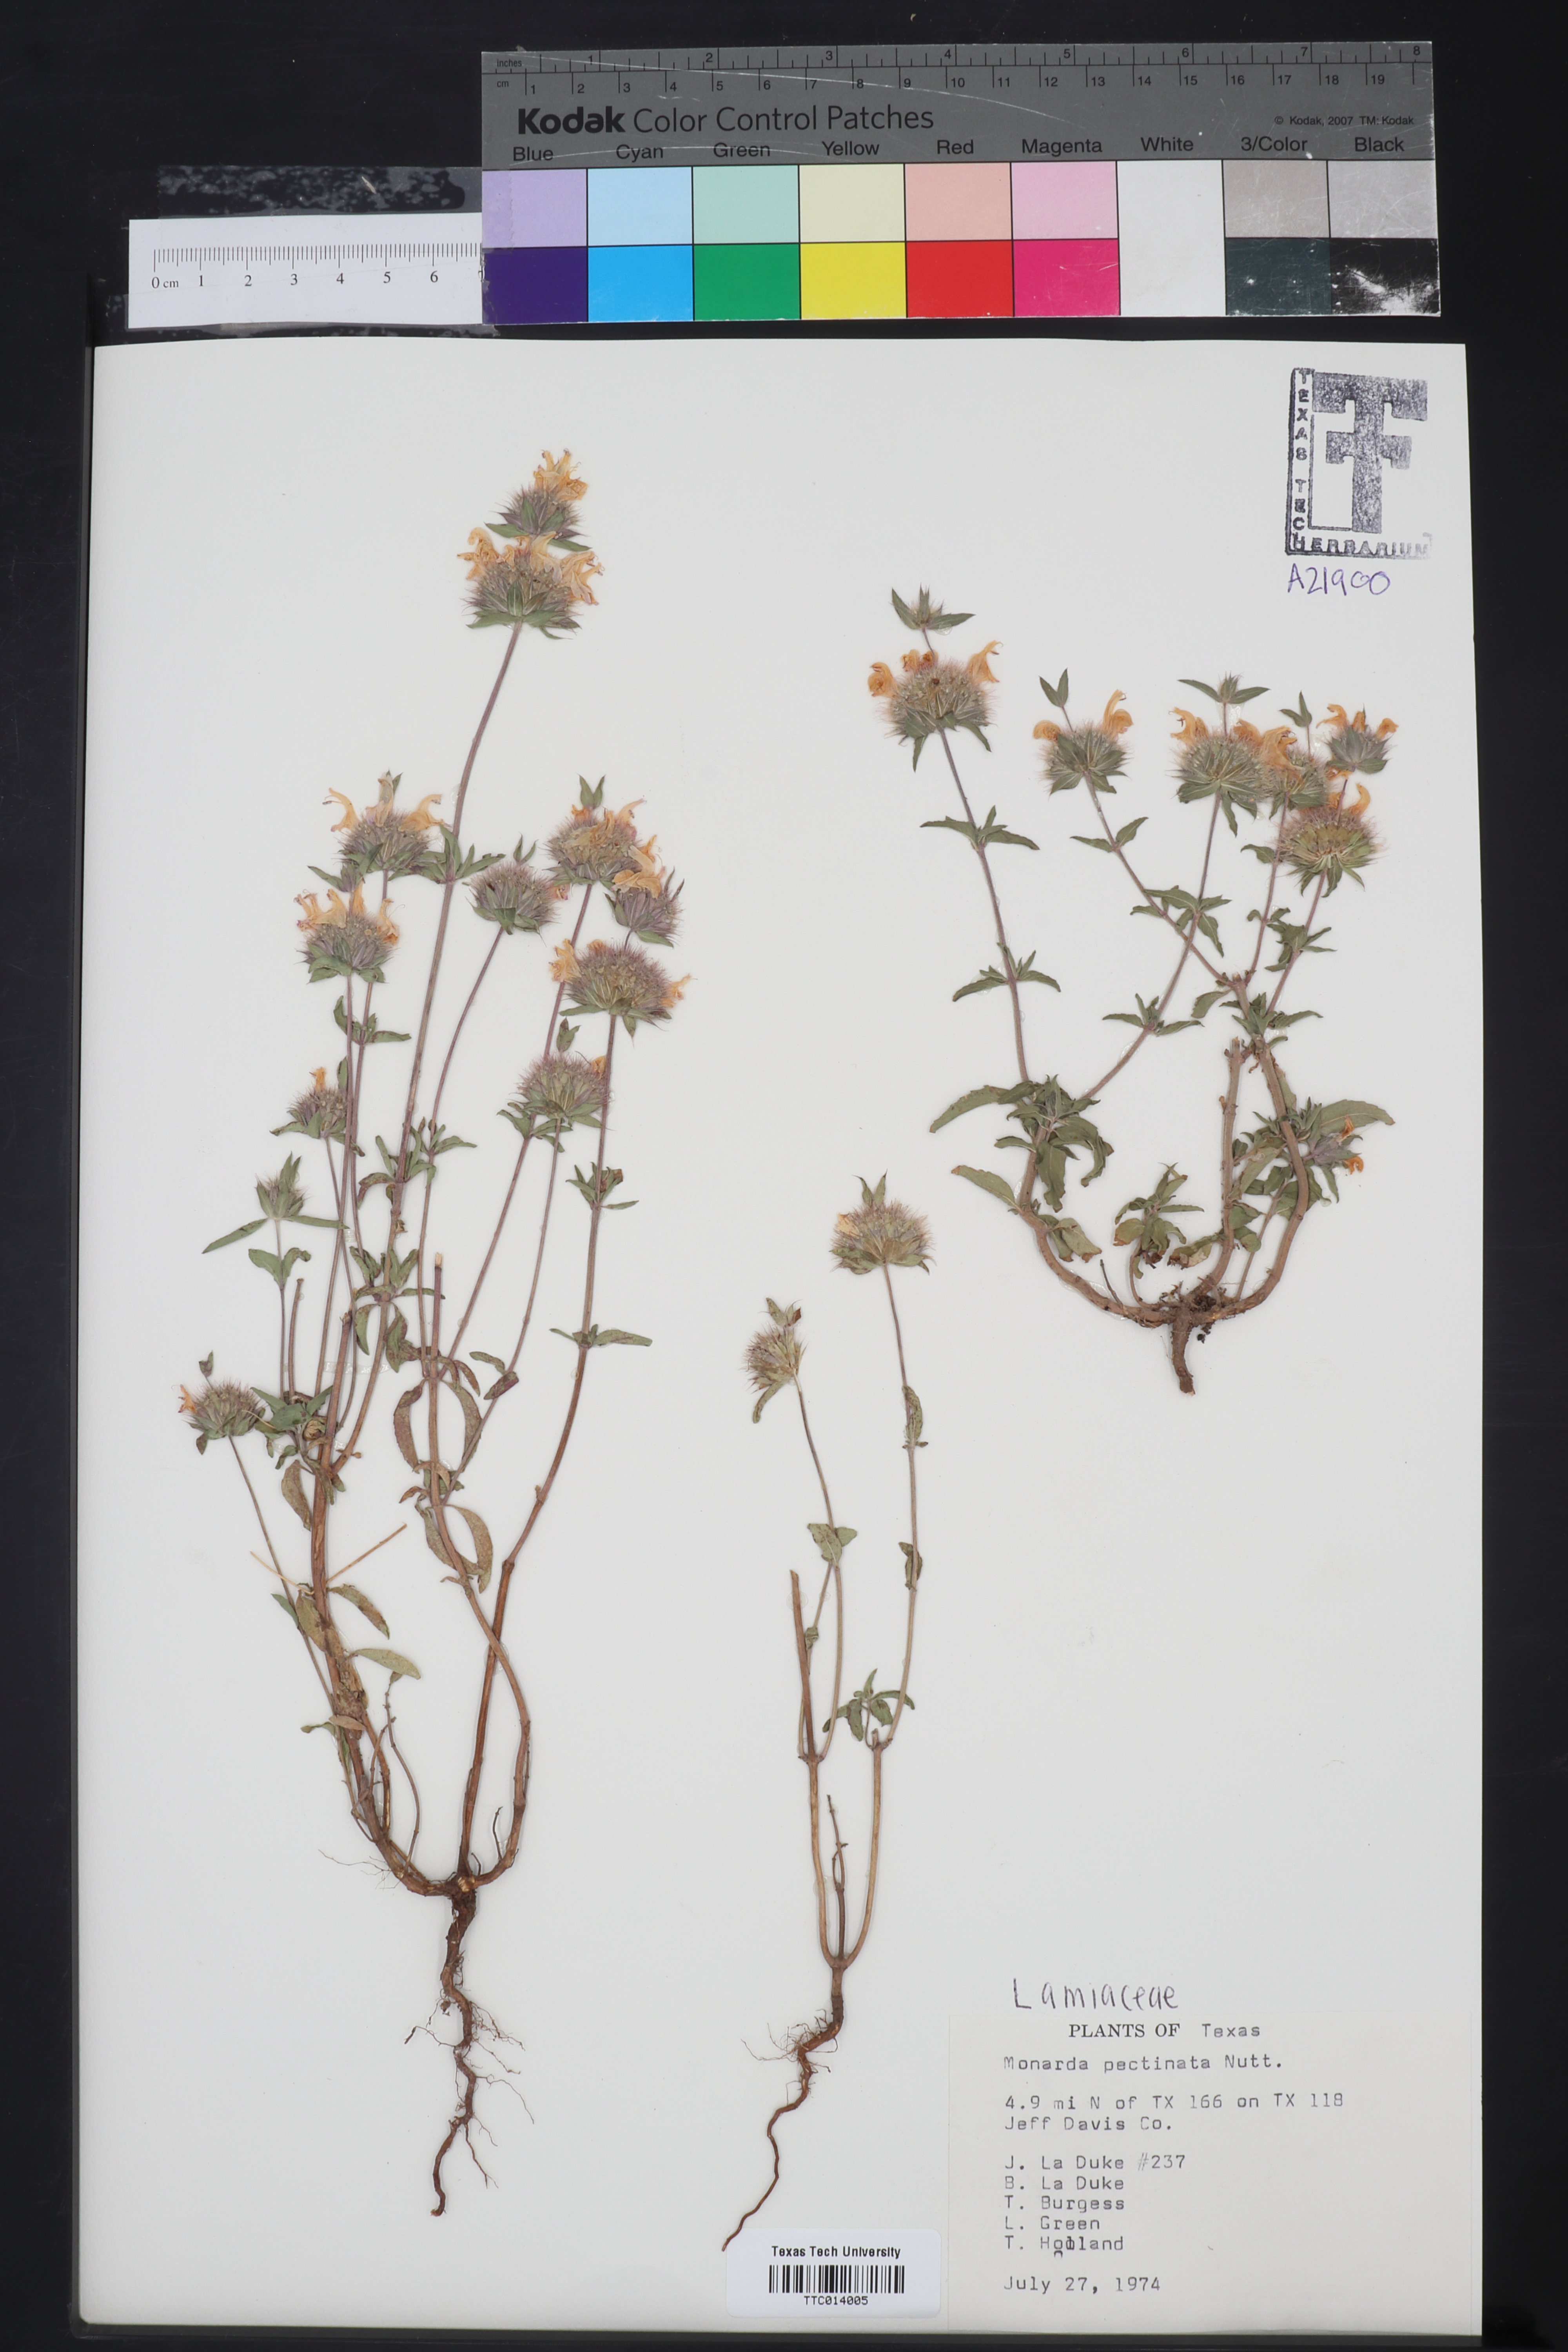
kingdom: Plantae
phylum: Tracheophyta
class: Magnoliopsida
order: Lamiales
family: Lamiaceae
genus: Monarda
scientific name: Monarda pectinata
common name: Plains beebalm
